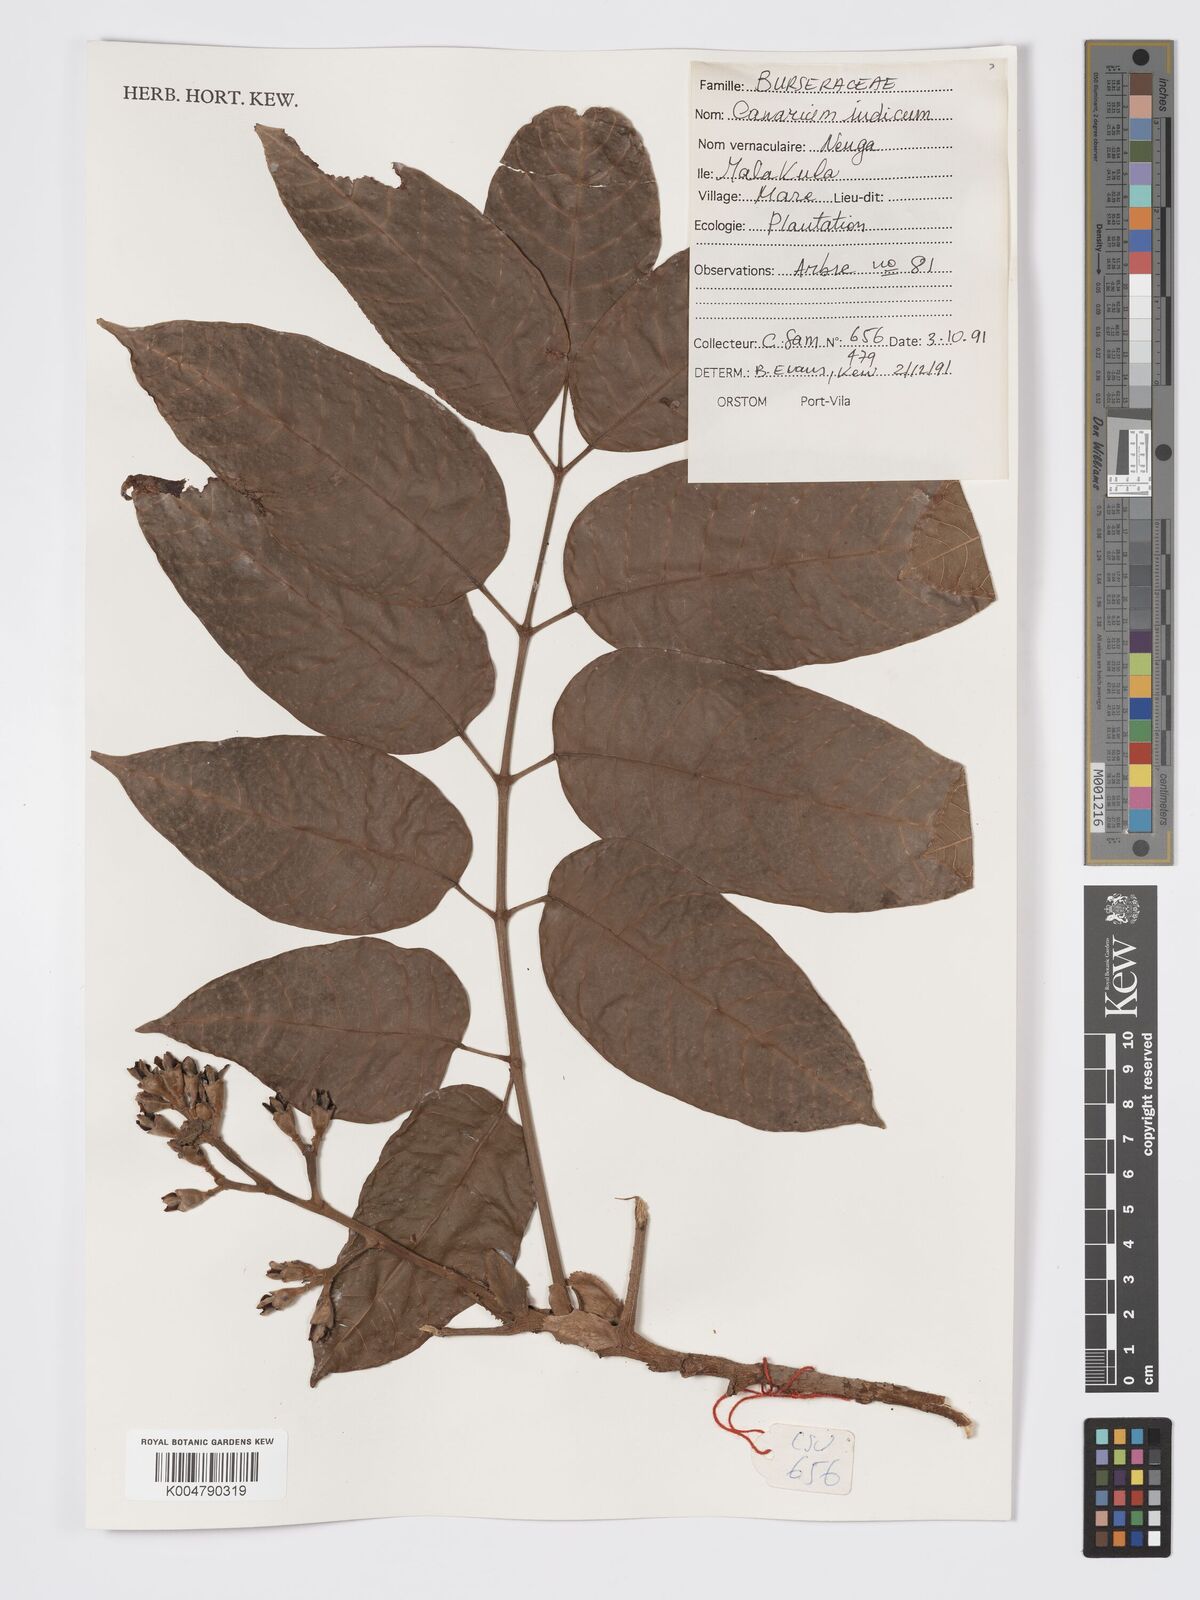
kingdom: Plantae
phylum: Tracheophyta
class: Magnoliopsida
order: Sapindales
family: Burseraceae
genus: Canarium
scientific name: Canarium indicum
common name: Canarium-nut
